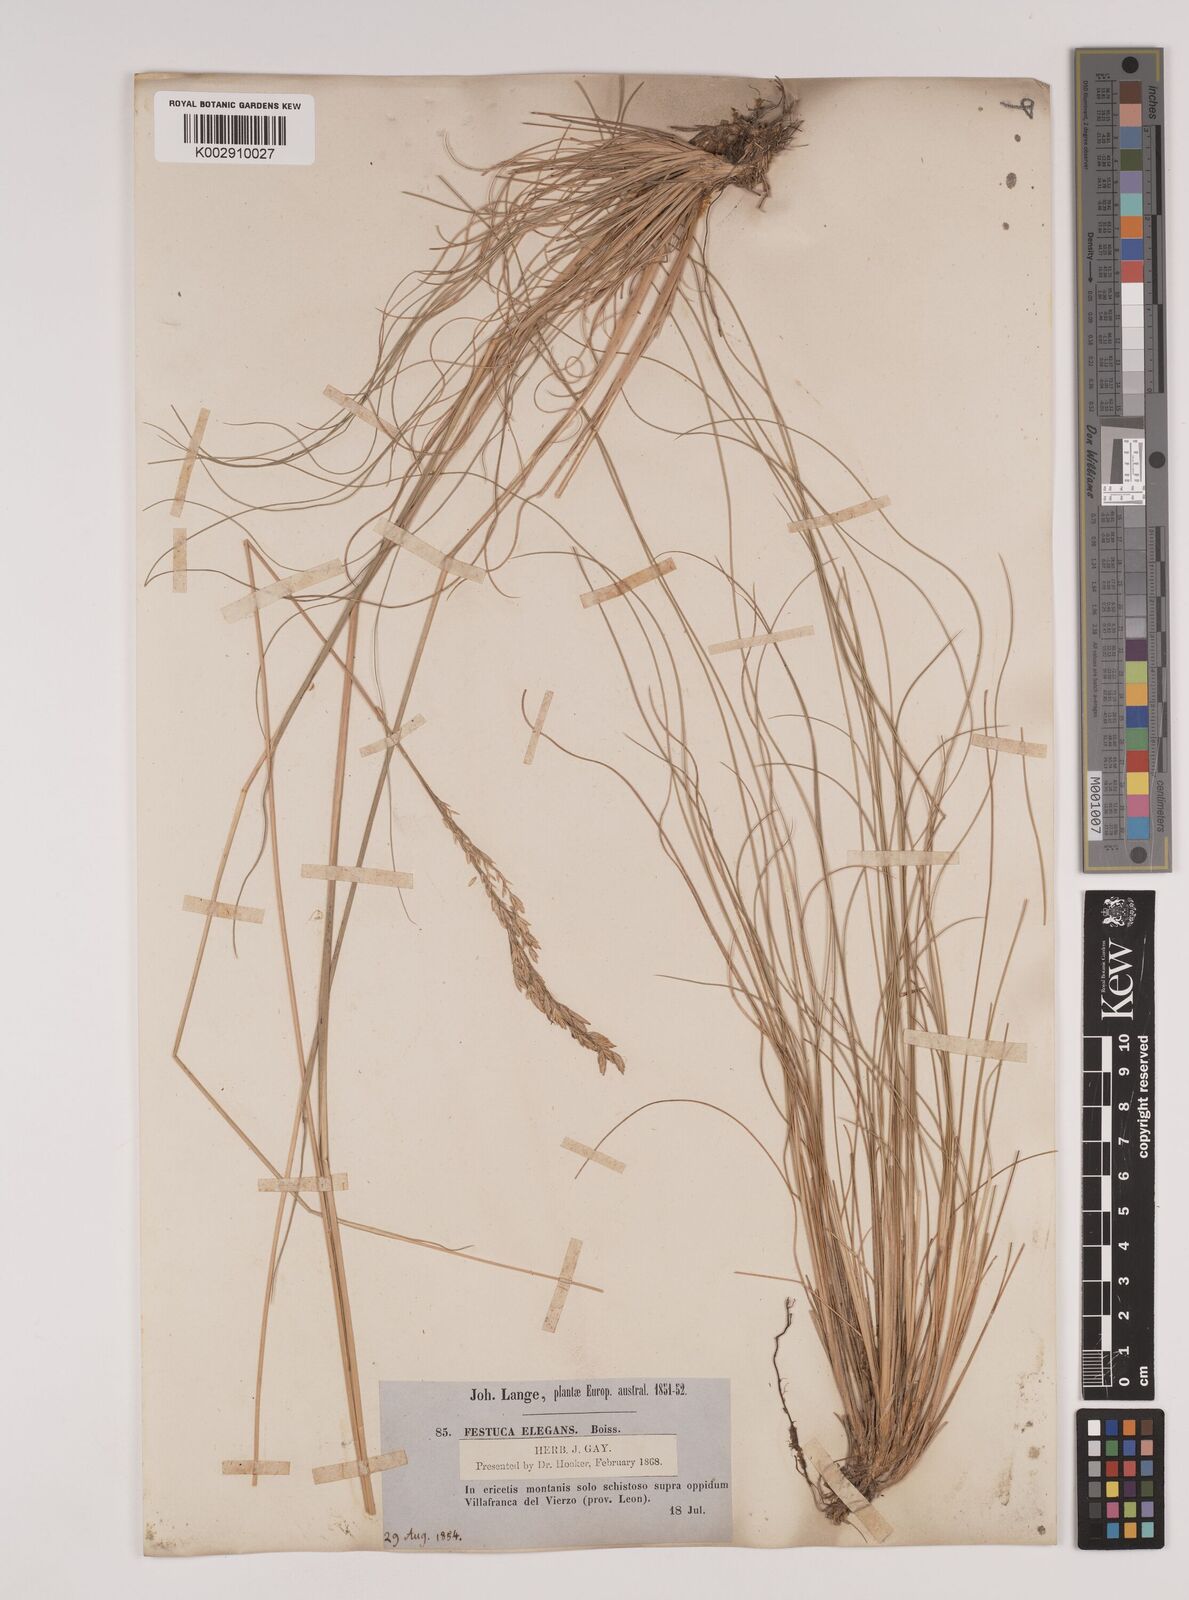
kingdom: Plantae
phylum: Tracheophyta
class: Liliopsida
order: Poales
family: Poaceae
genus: Festuca
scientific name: Festuca elegans
